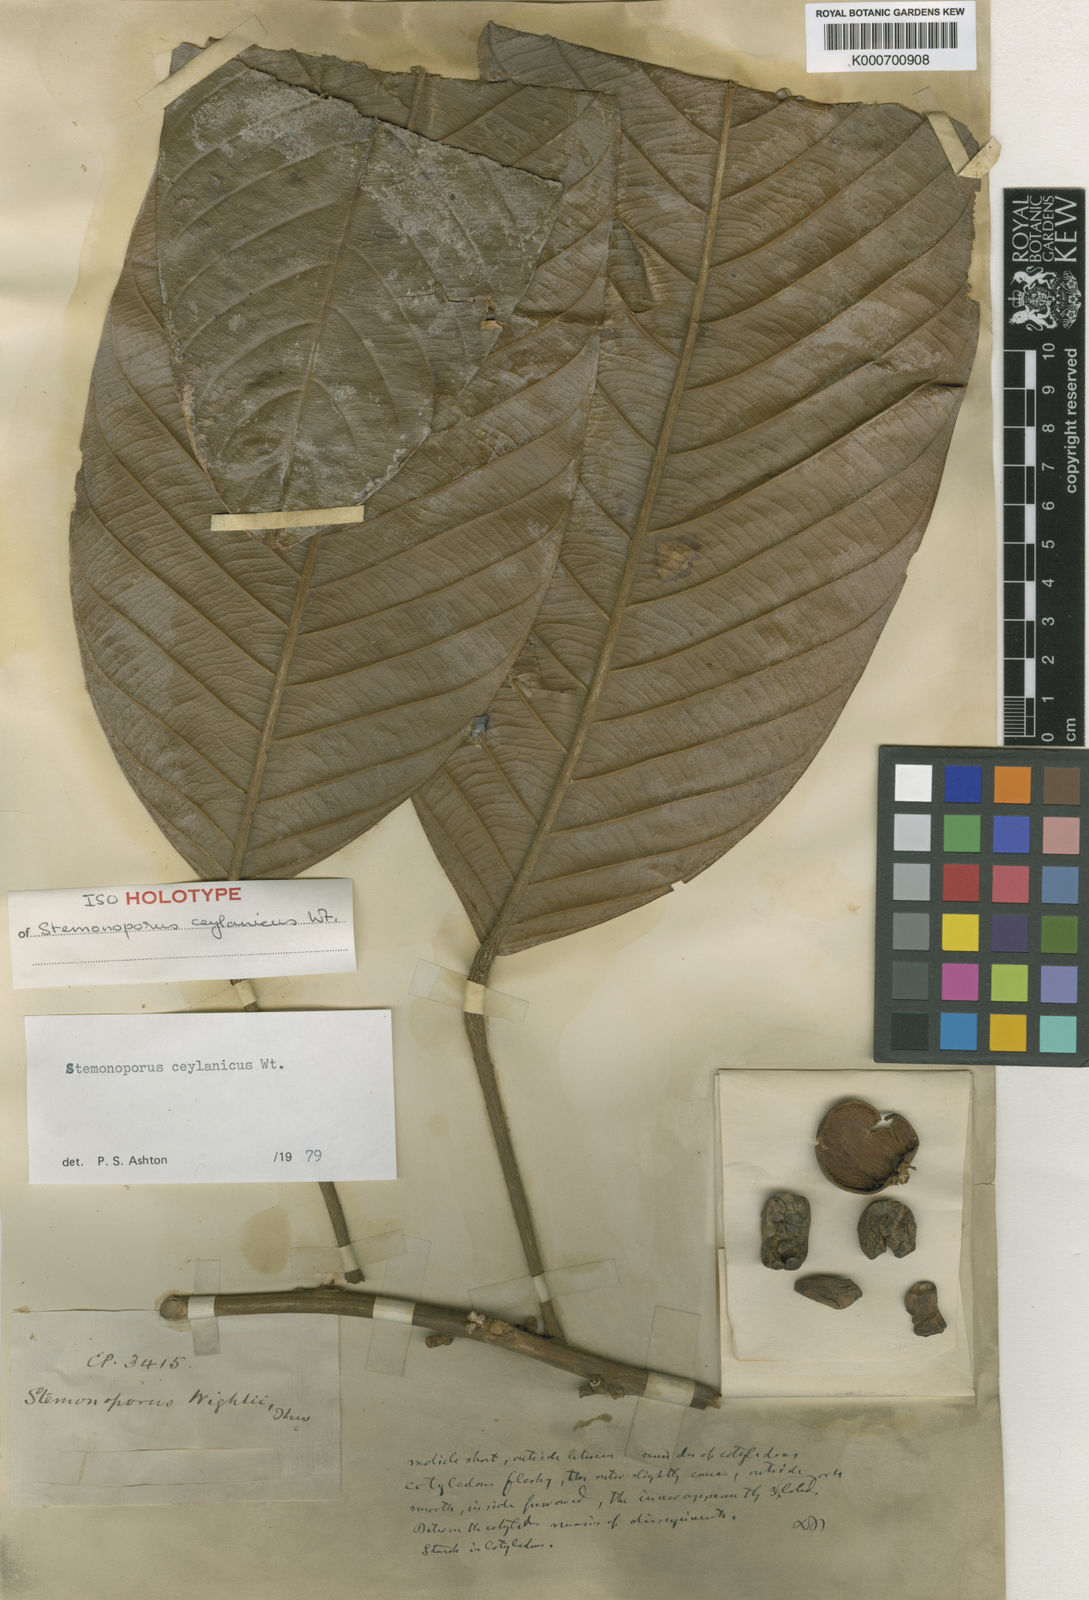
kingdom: Plantae
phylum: Tracheophyta
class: Magnoliopsida
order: Malvales
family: Dipterocarpaceae
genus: Stemonoporus
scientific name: Stemonoporus ceylanicus
